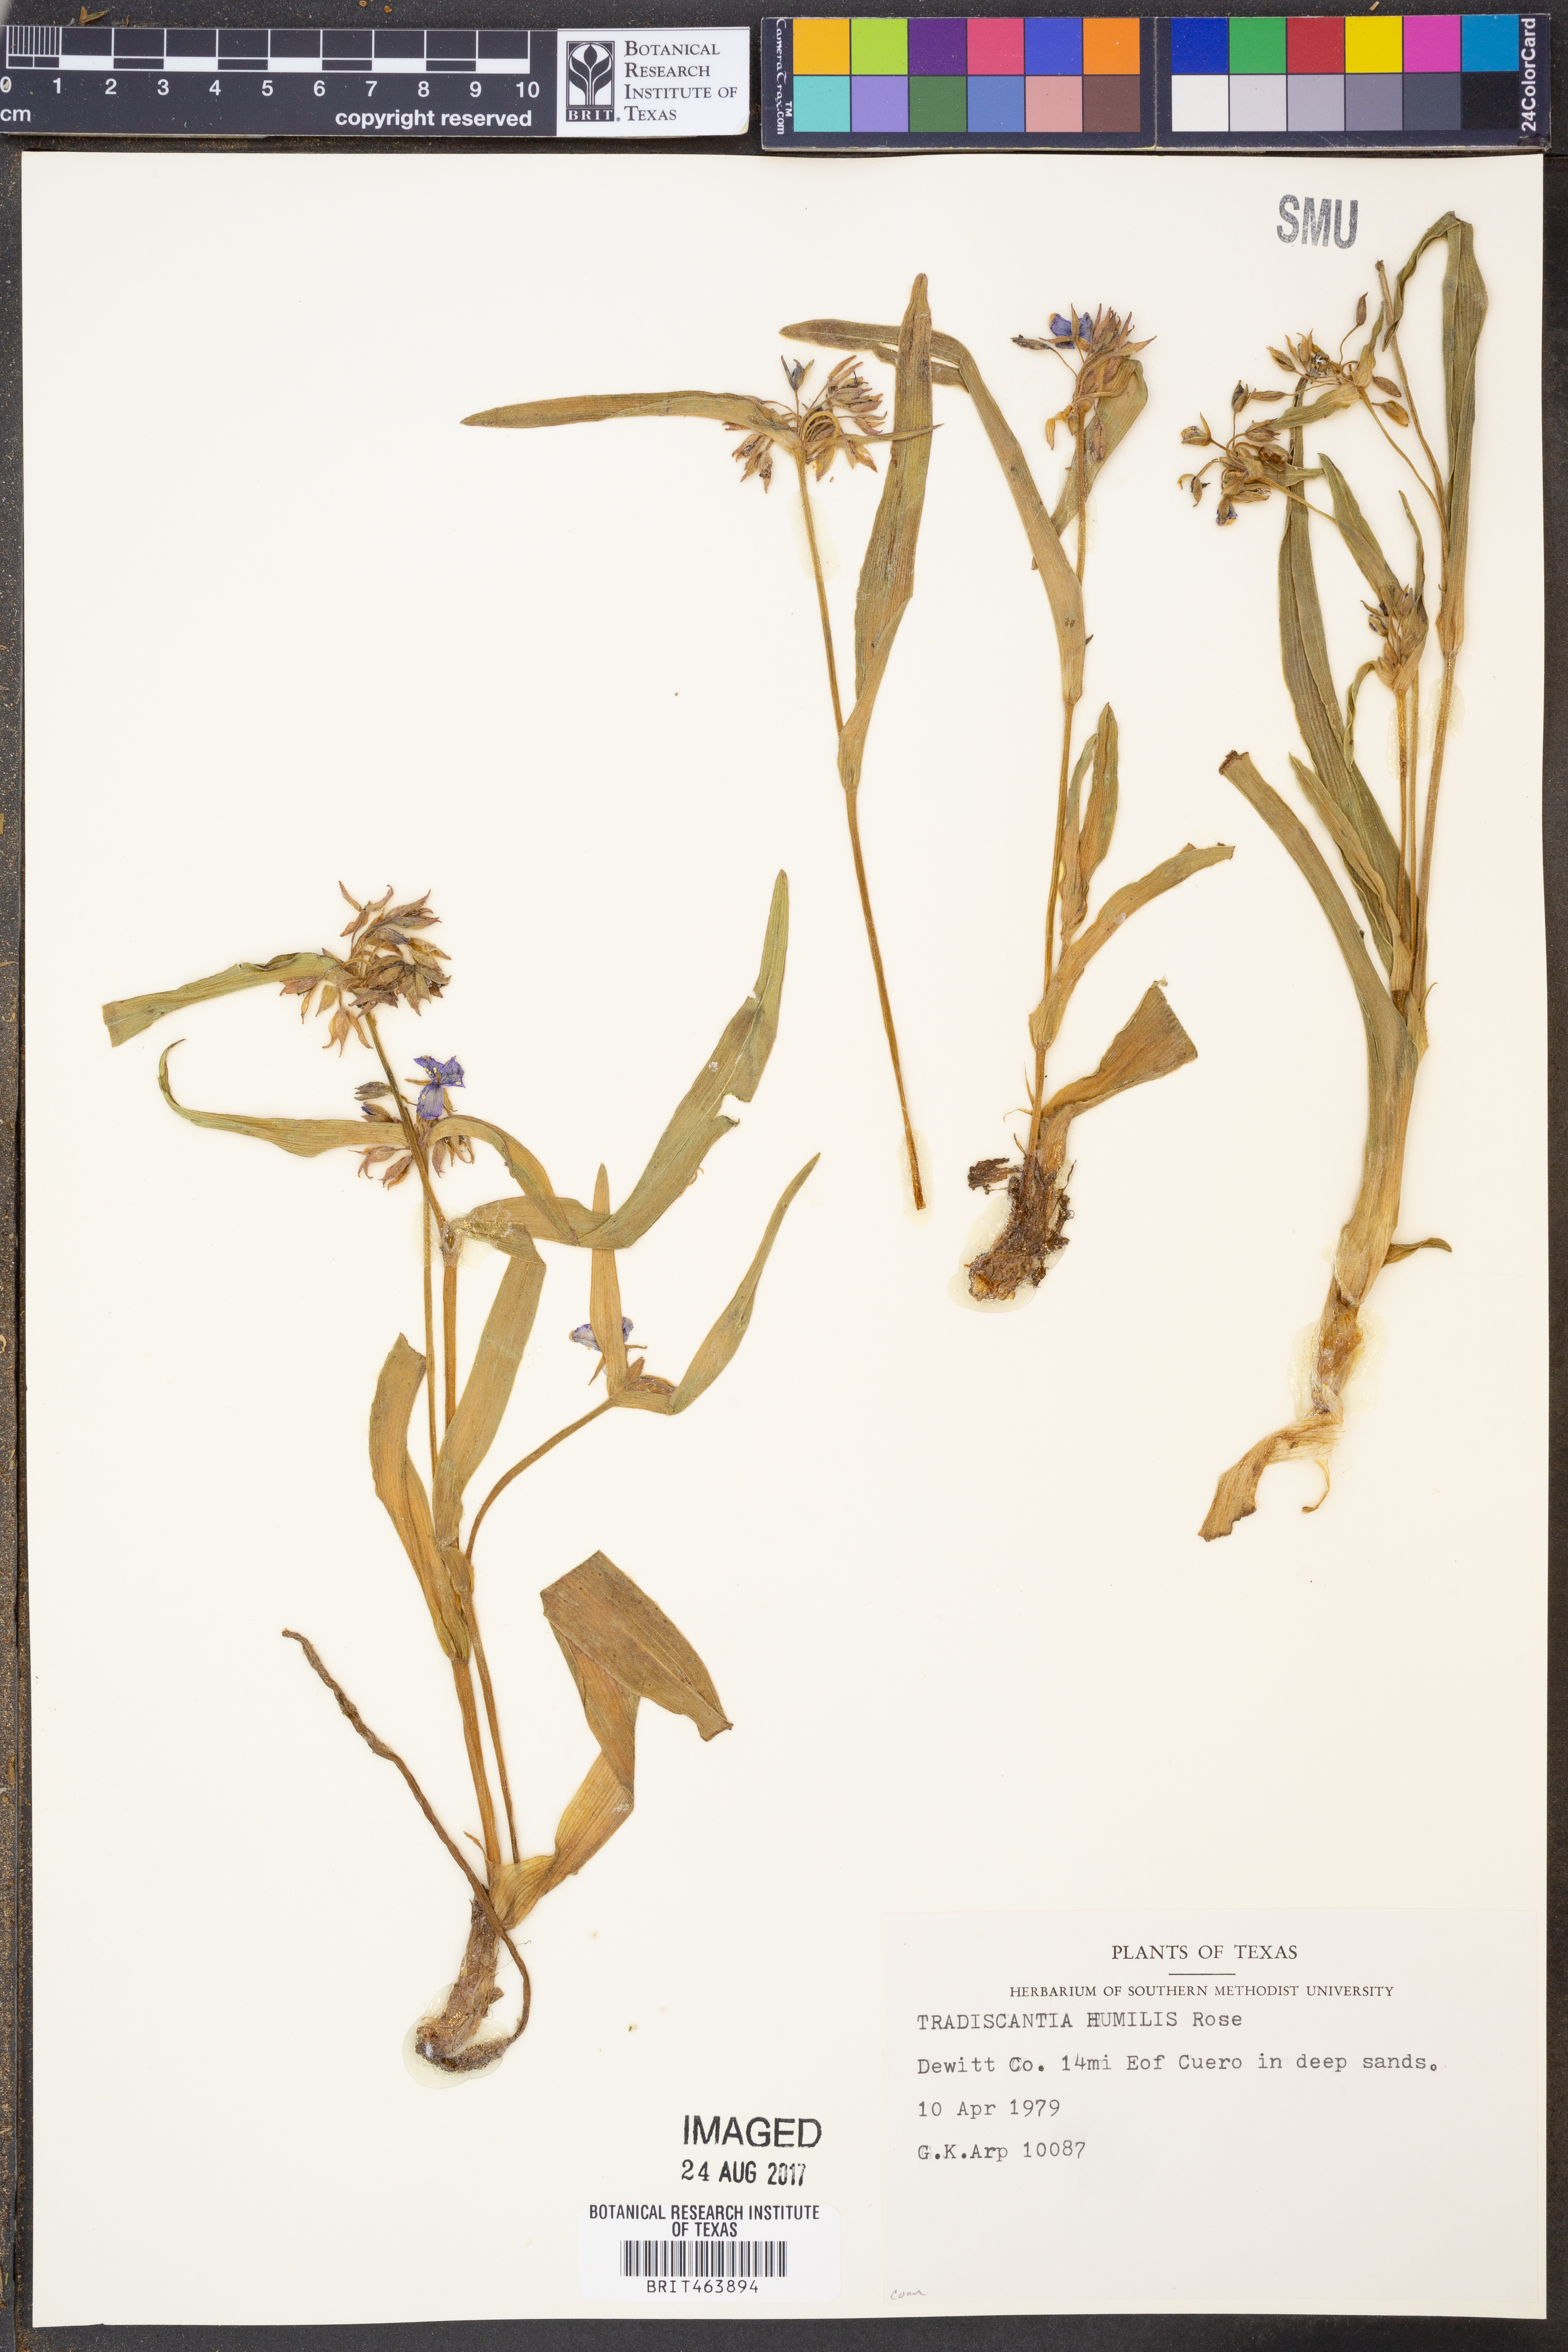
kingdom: Plantae
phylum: Tracheophyta
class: Liliopsida
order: Commelinales
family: Commelinaceae
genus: Tradescantia
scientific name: Tradescantia humilis
